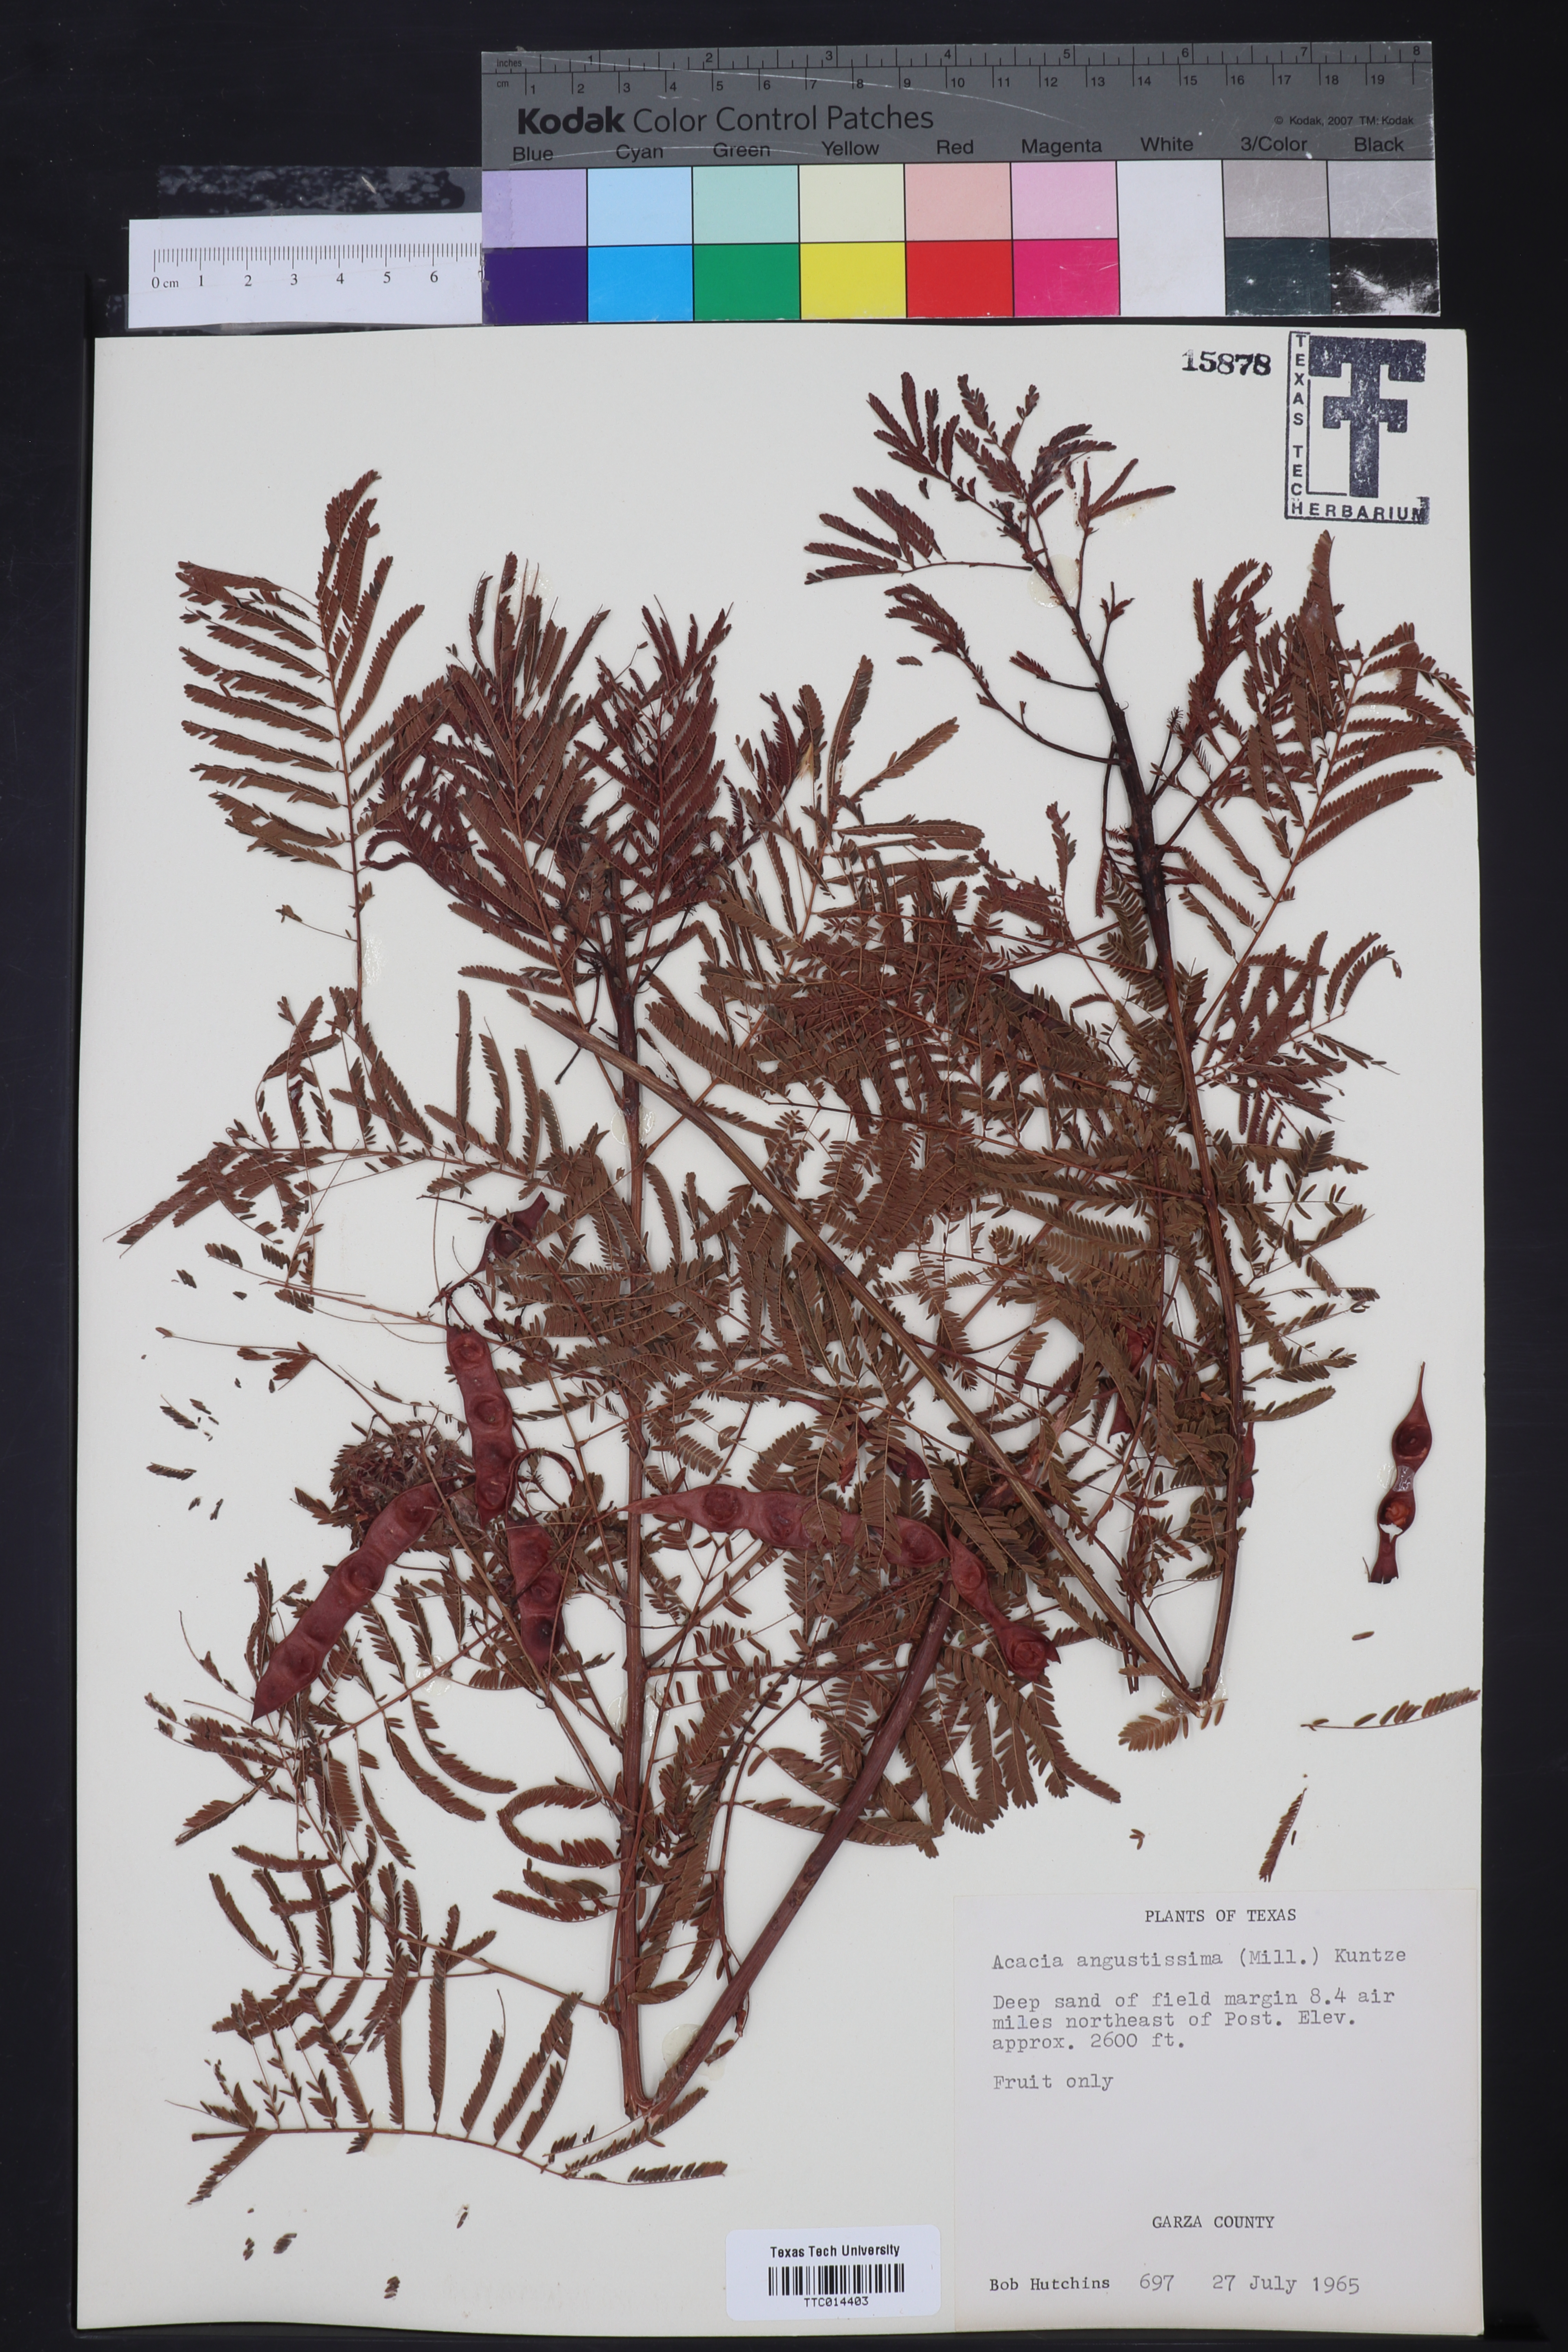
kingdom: Plantae
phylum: Tracheophyta
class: Magnoliopsida
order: Fabales
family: Fabaceae
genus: Acaciella
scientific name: Acaciella angustissima
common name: Prairie acacia
